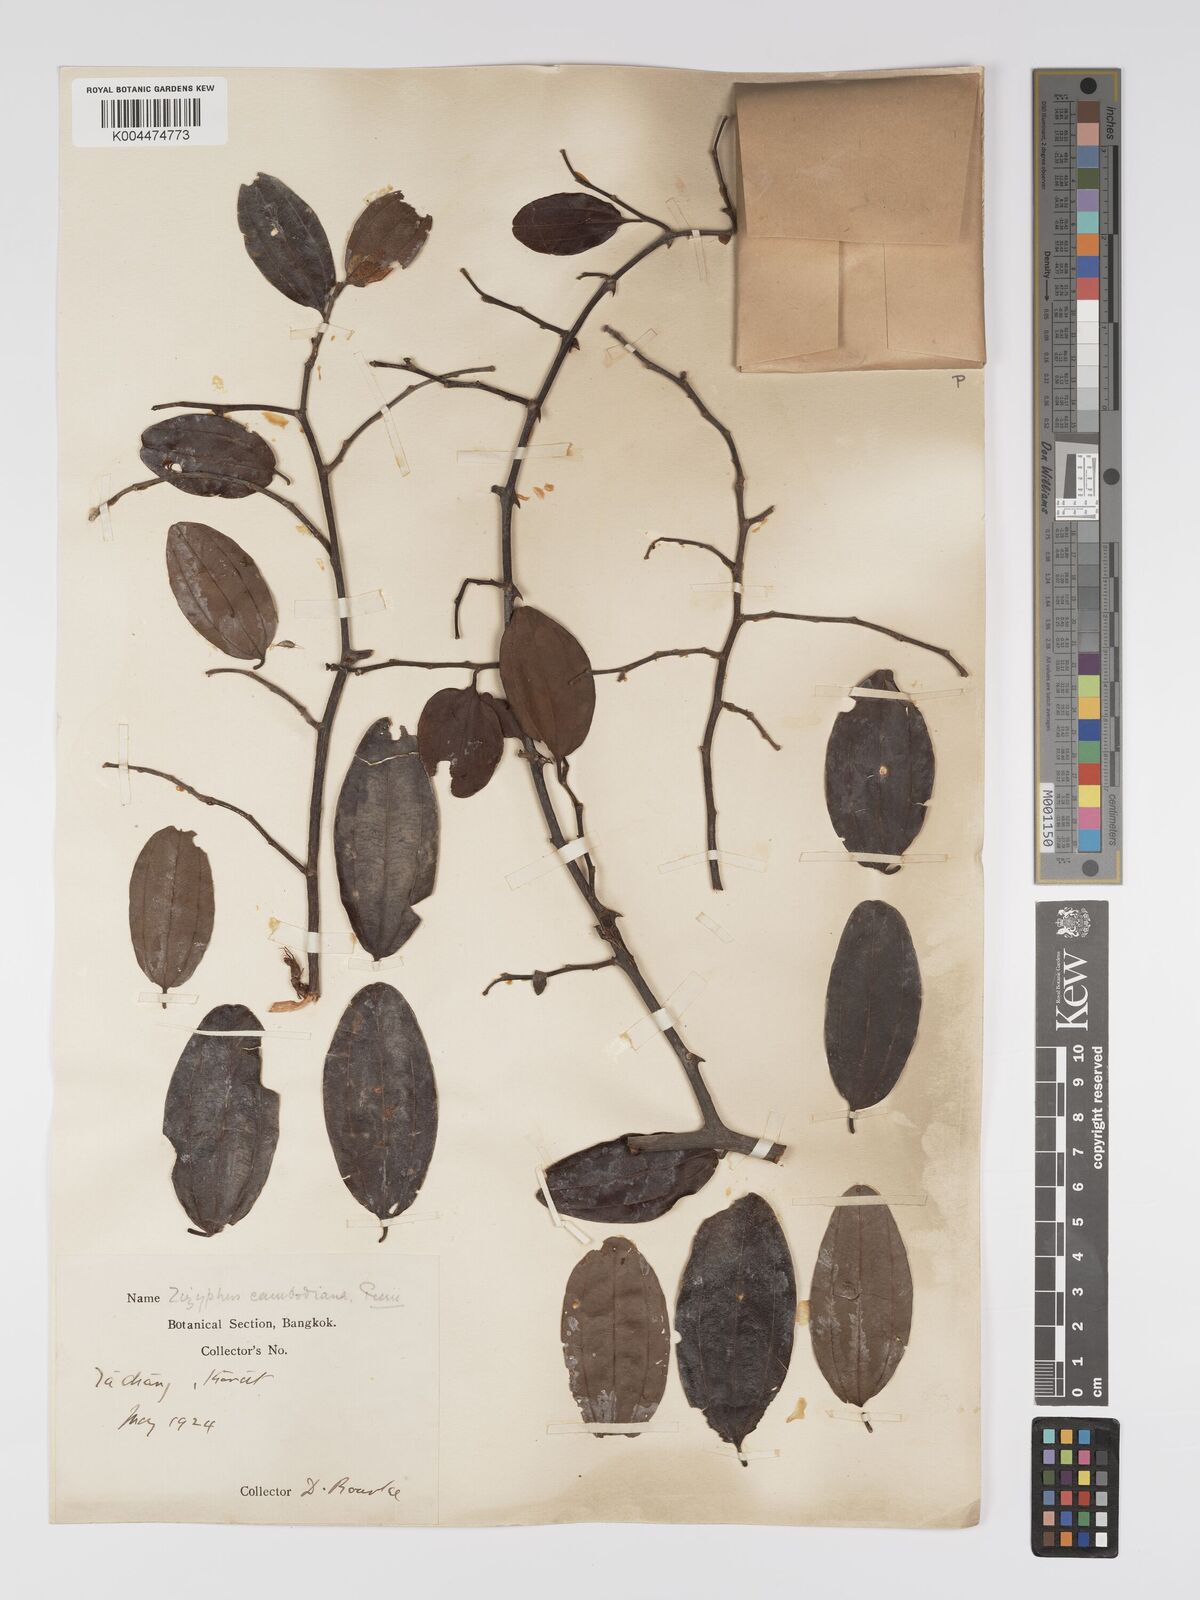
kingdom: Plantae
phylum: Tracheophyta
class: Magnoliopsida
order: Rosales
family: Rhamnaceae
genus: Ziziphus
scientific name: Ziziphus cambodiana
